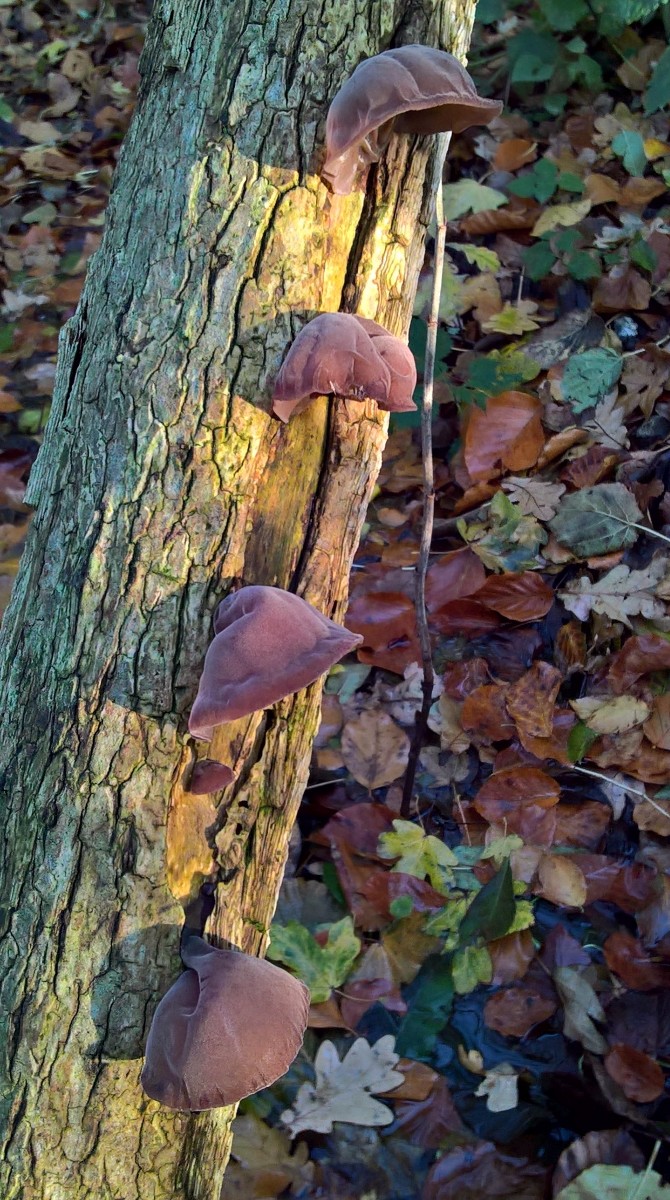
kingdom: Fungi
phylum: Basidiomycota
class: Agaricomycetes
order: Auriculariales
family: Auriculariaceae
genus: Auricularia
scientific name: Auricularia auricula-judae
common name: almindelig judasøre
